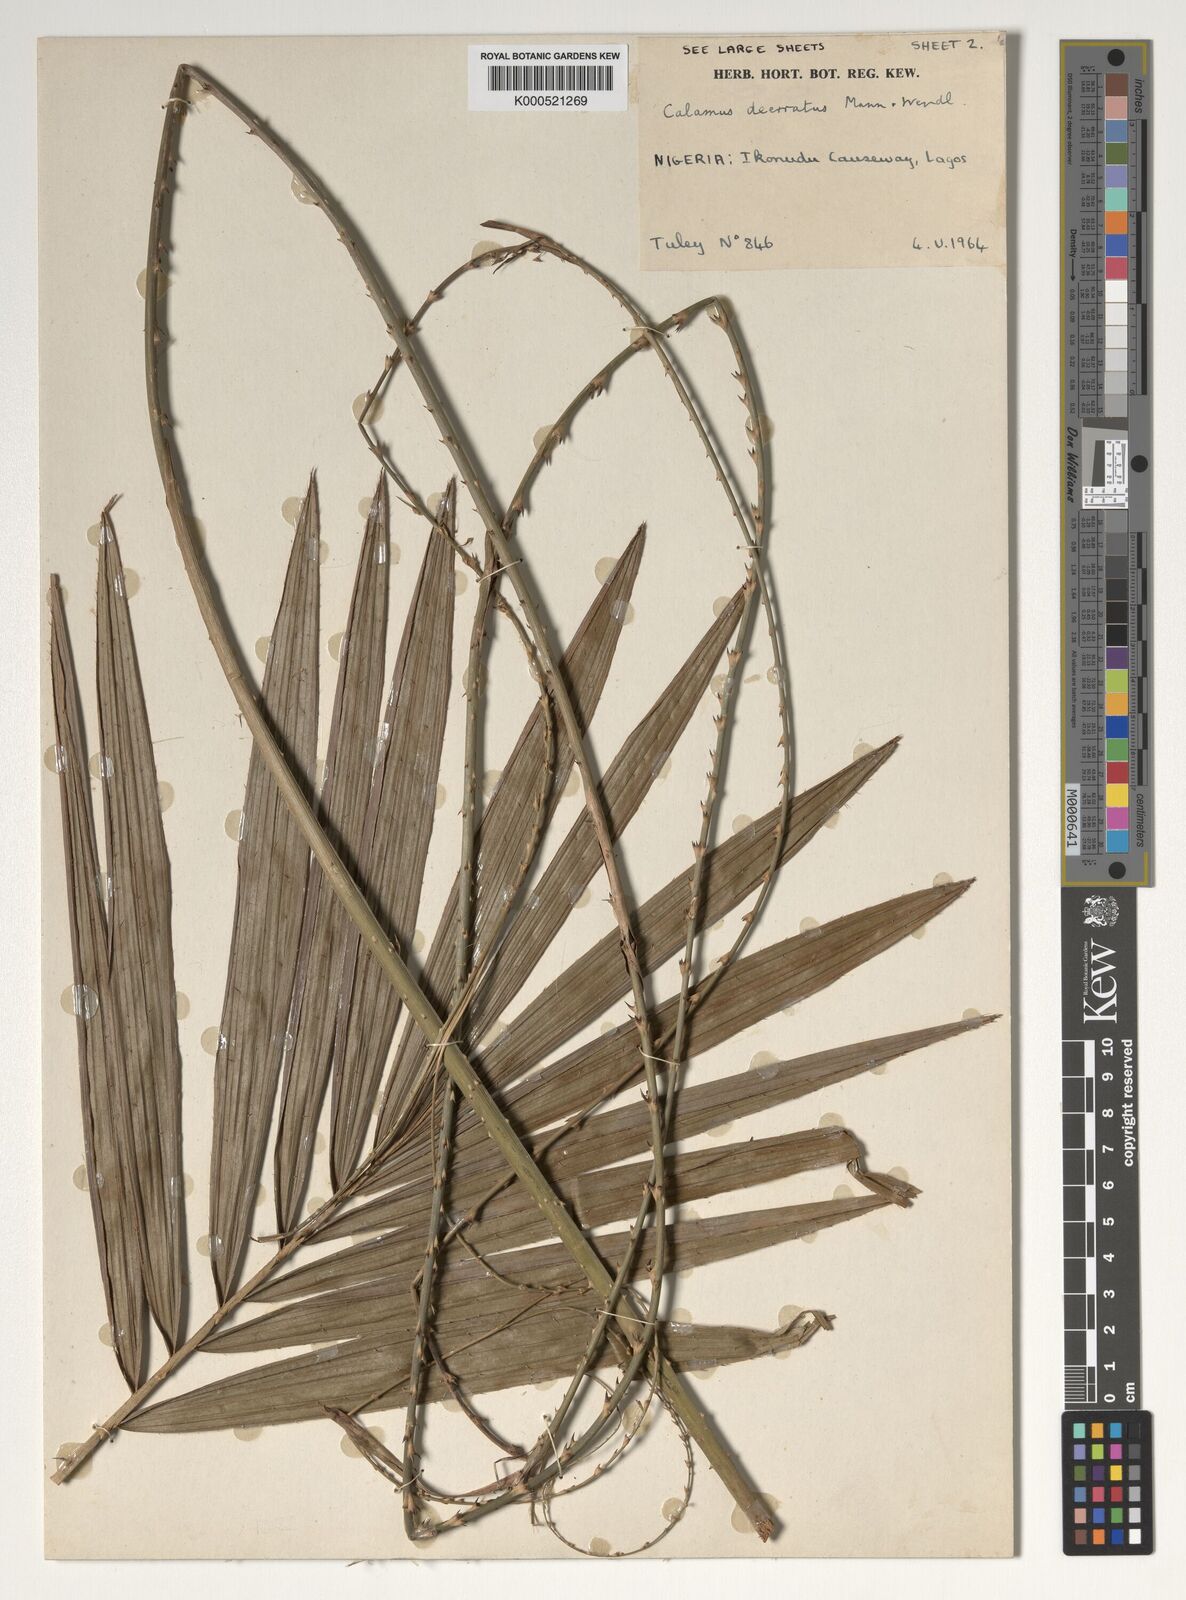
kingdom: Plantae
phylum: Tracheophyta
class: Liliopsida
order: Arecales
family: Arecaceae
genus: Calamus
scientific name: Calamus deerratus
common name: Rattan
